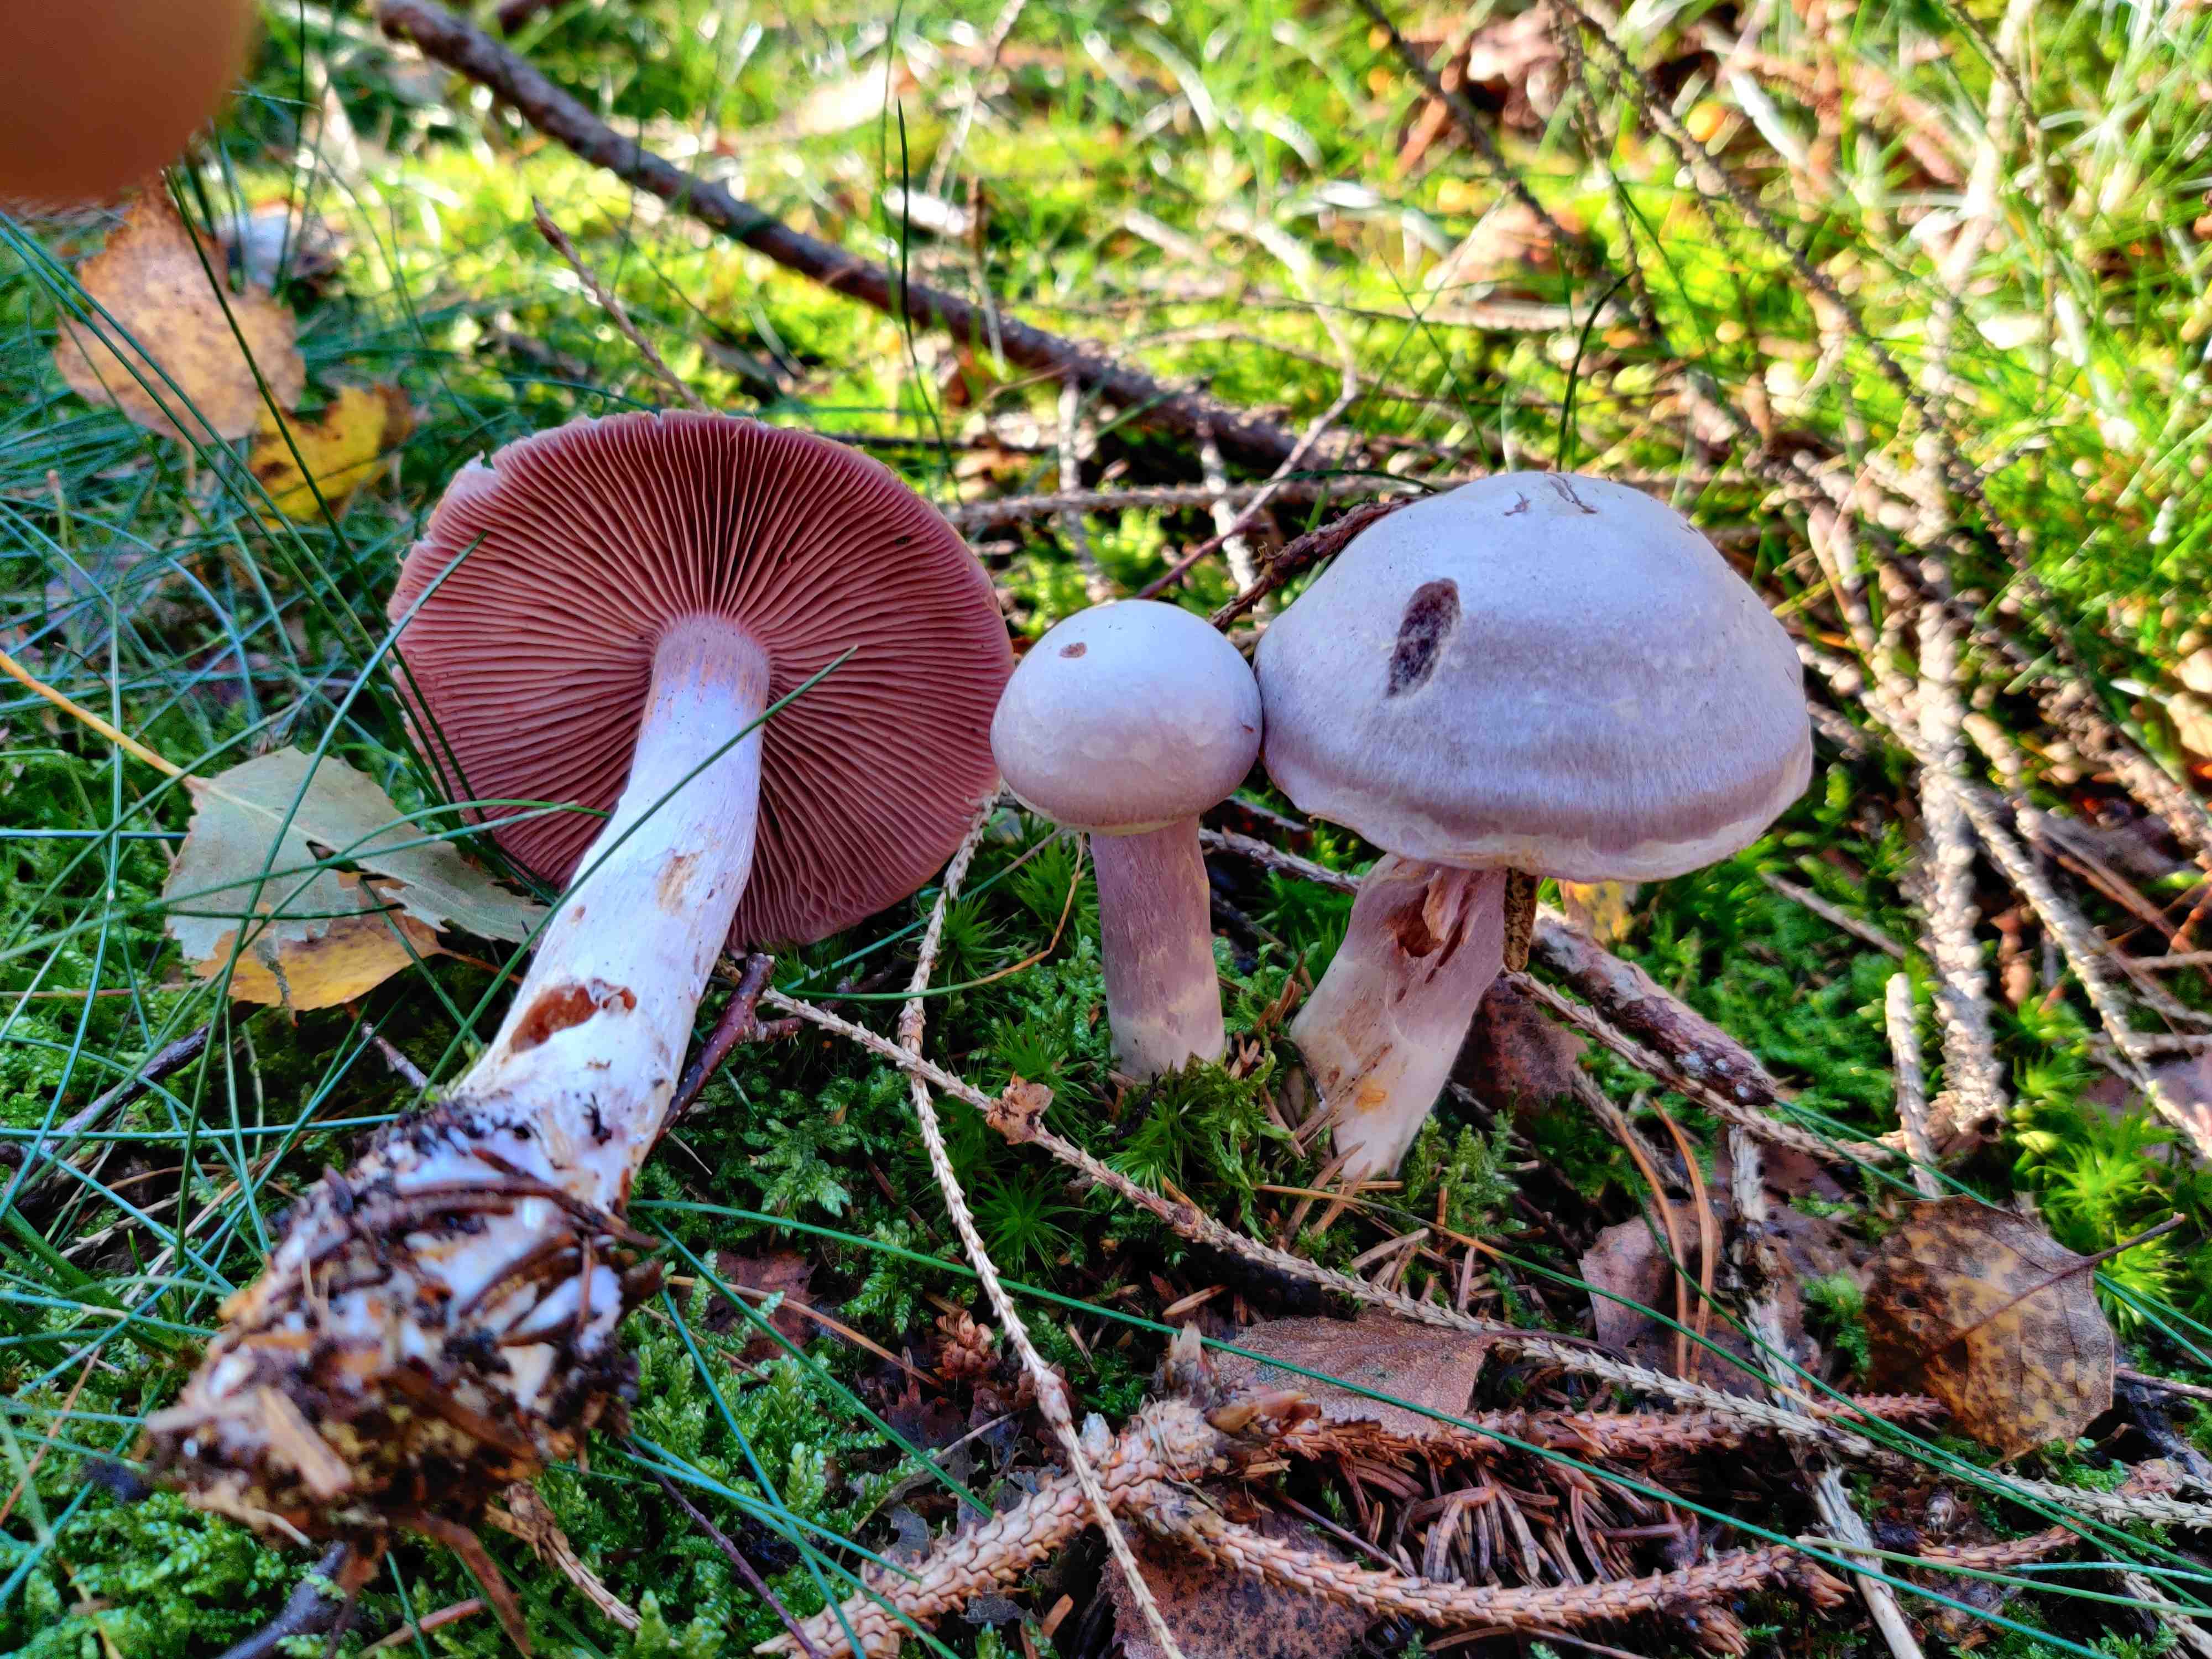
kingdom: Fungi
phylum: Basidiomycota
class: Agaricomycetes
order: Agaricales
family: Cortinariaceae
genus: Cortinarius
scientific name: Cortinarius
